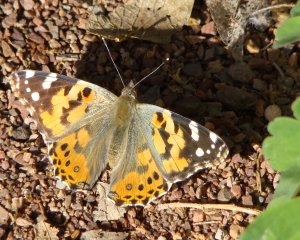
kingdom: Animalia
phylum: Arthropoda
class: Insecta
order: Lepidoptera
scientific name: Lepidoptera
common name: Butterflies
